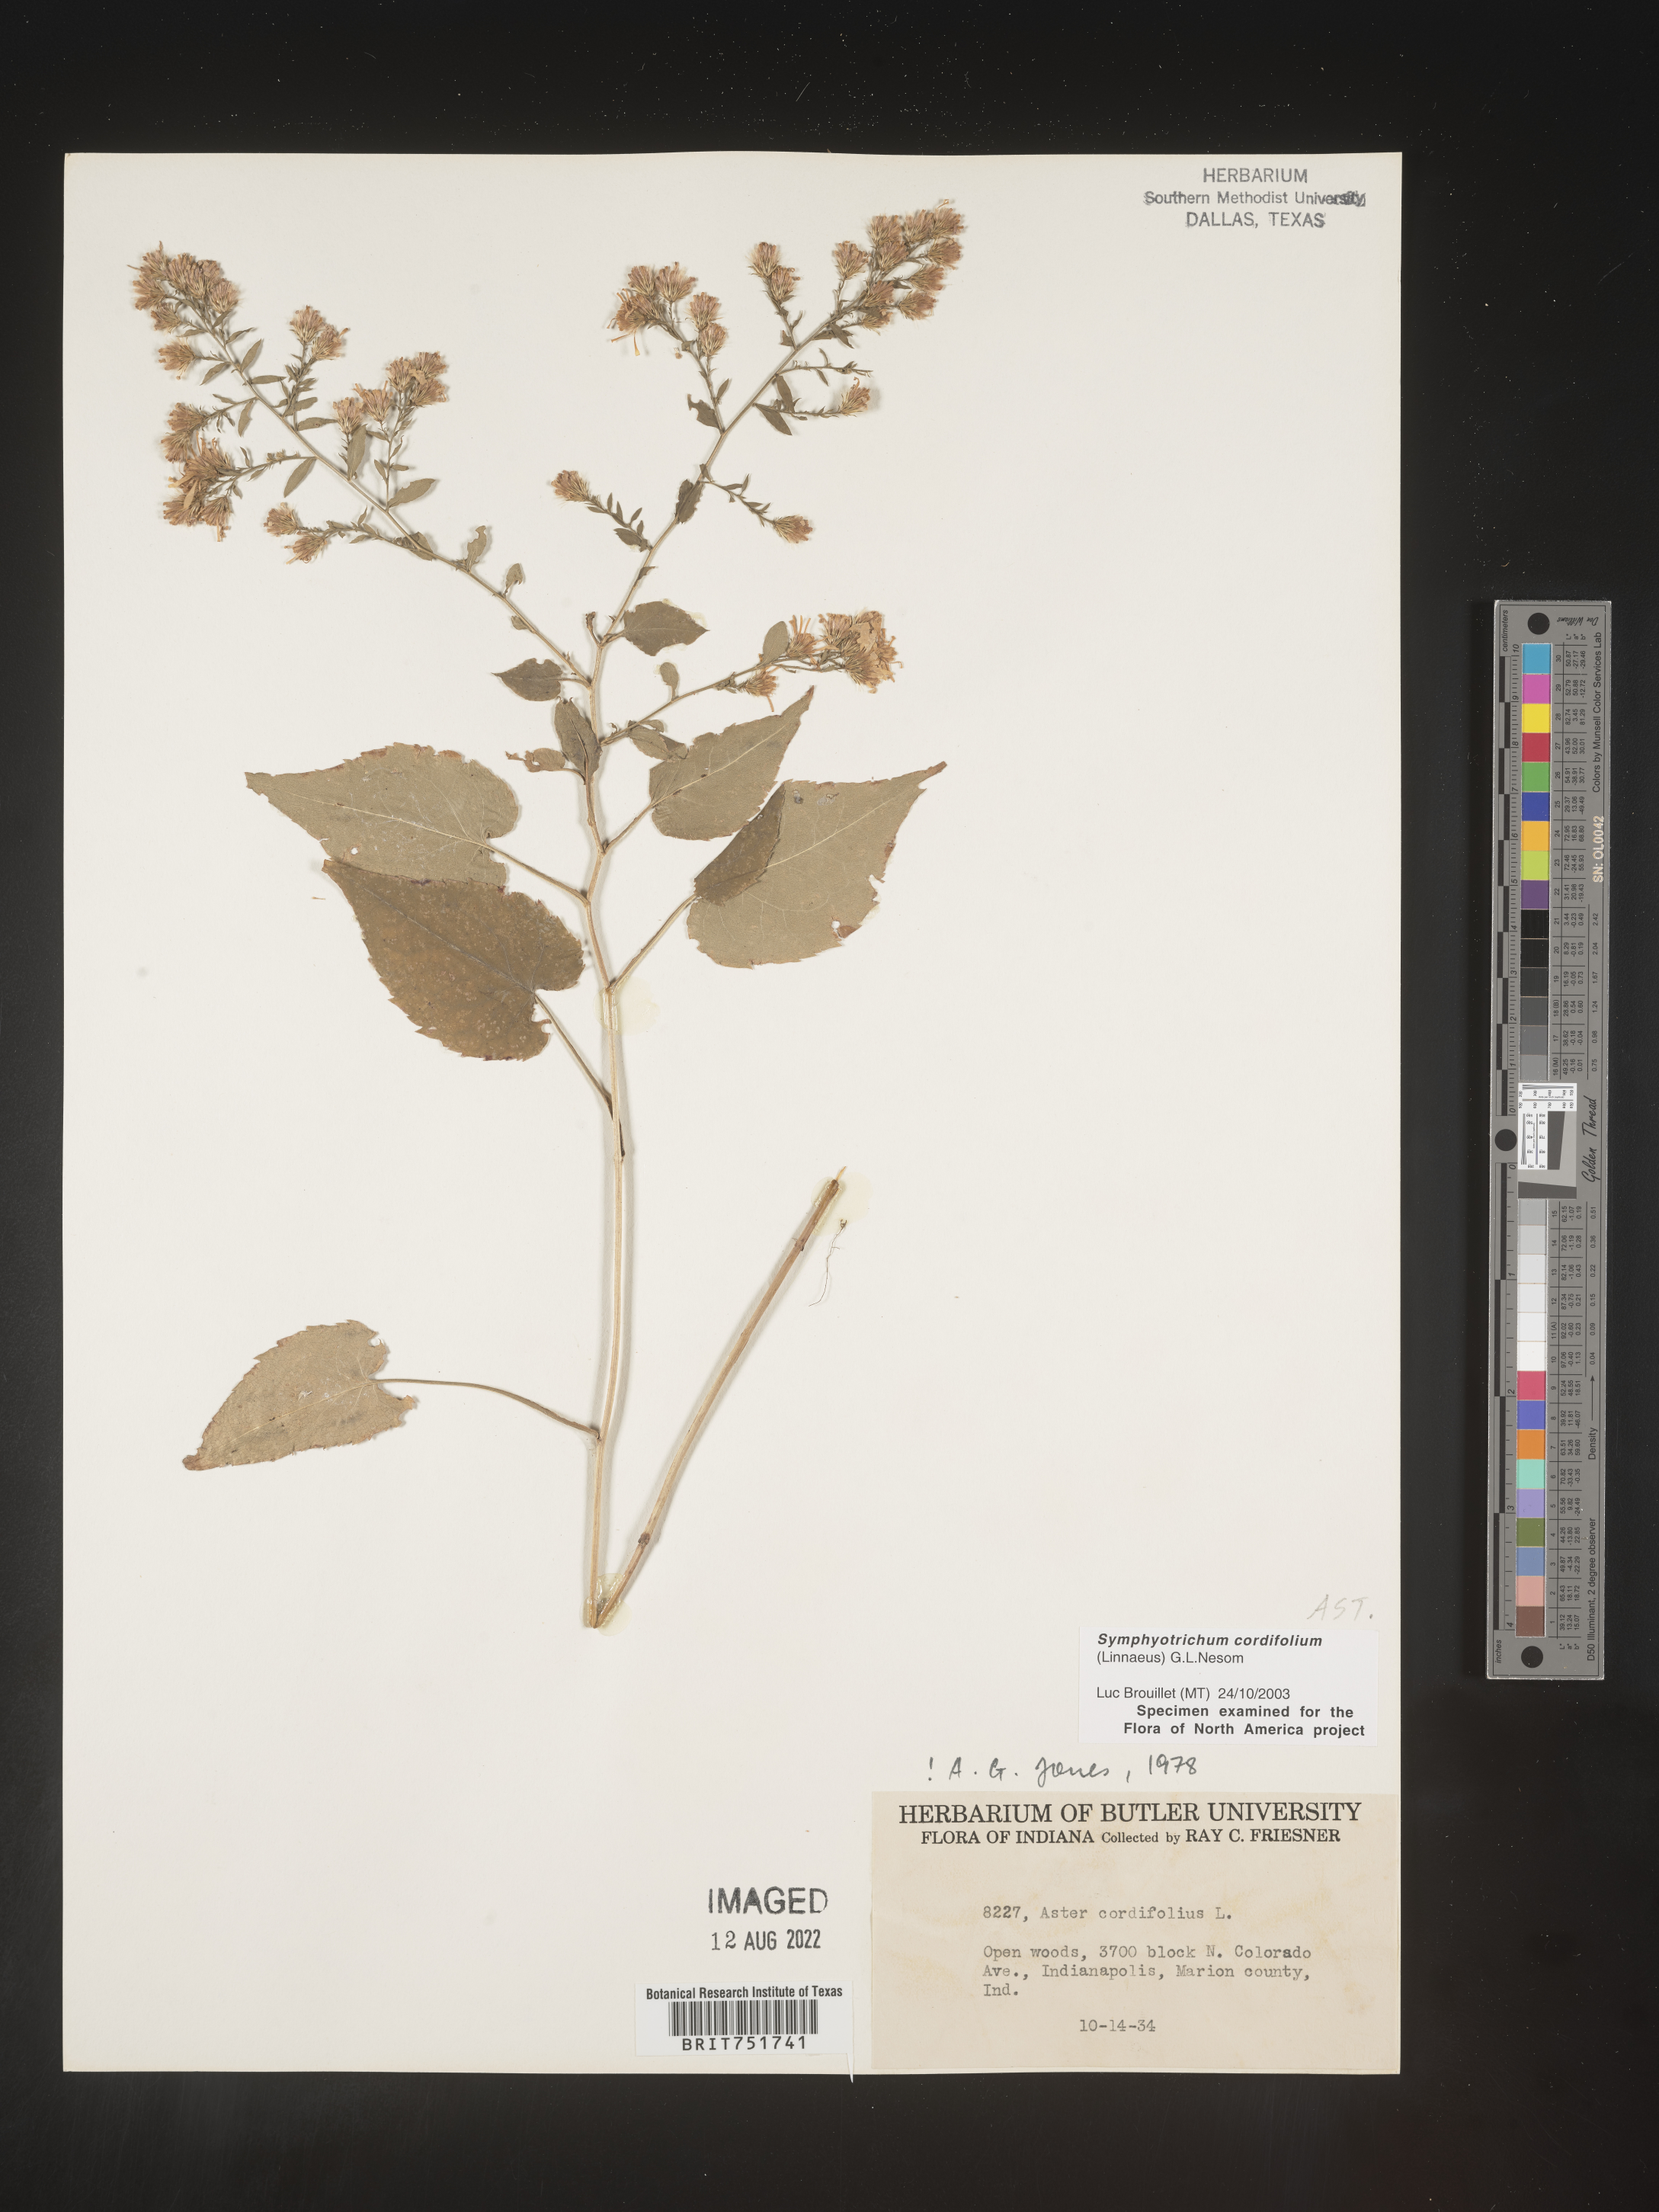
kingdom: Plantae
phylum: Tracheophyta
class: Magnoliopsida
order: Asterales
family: Asteraceae
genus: Symphyotrichum
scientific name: Symphyotrichum cordifolium
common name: Beeweed
